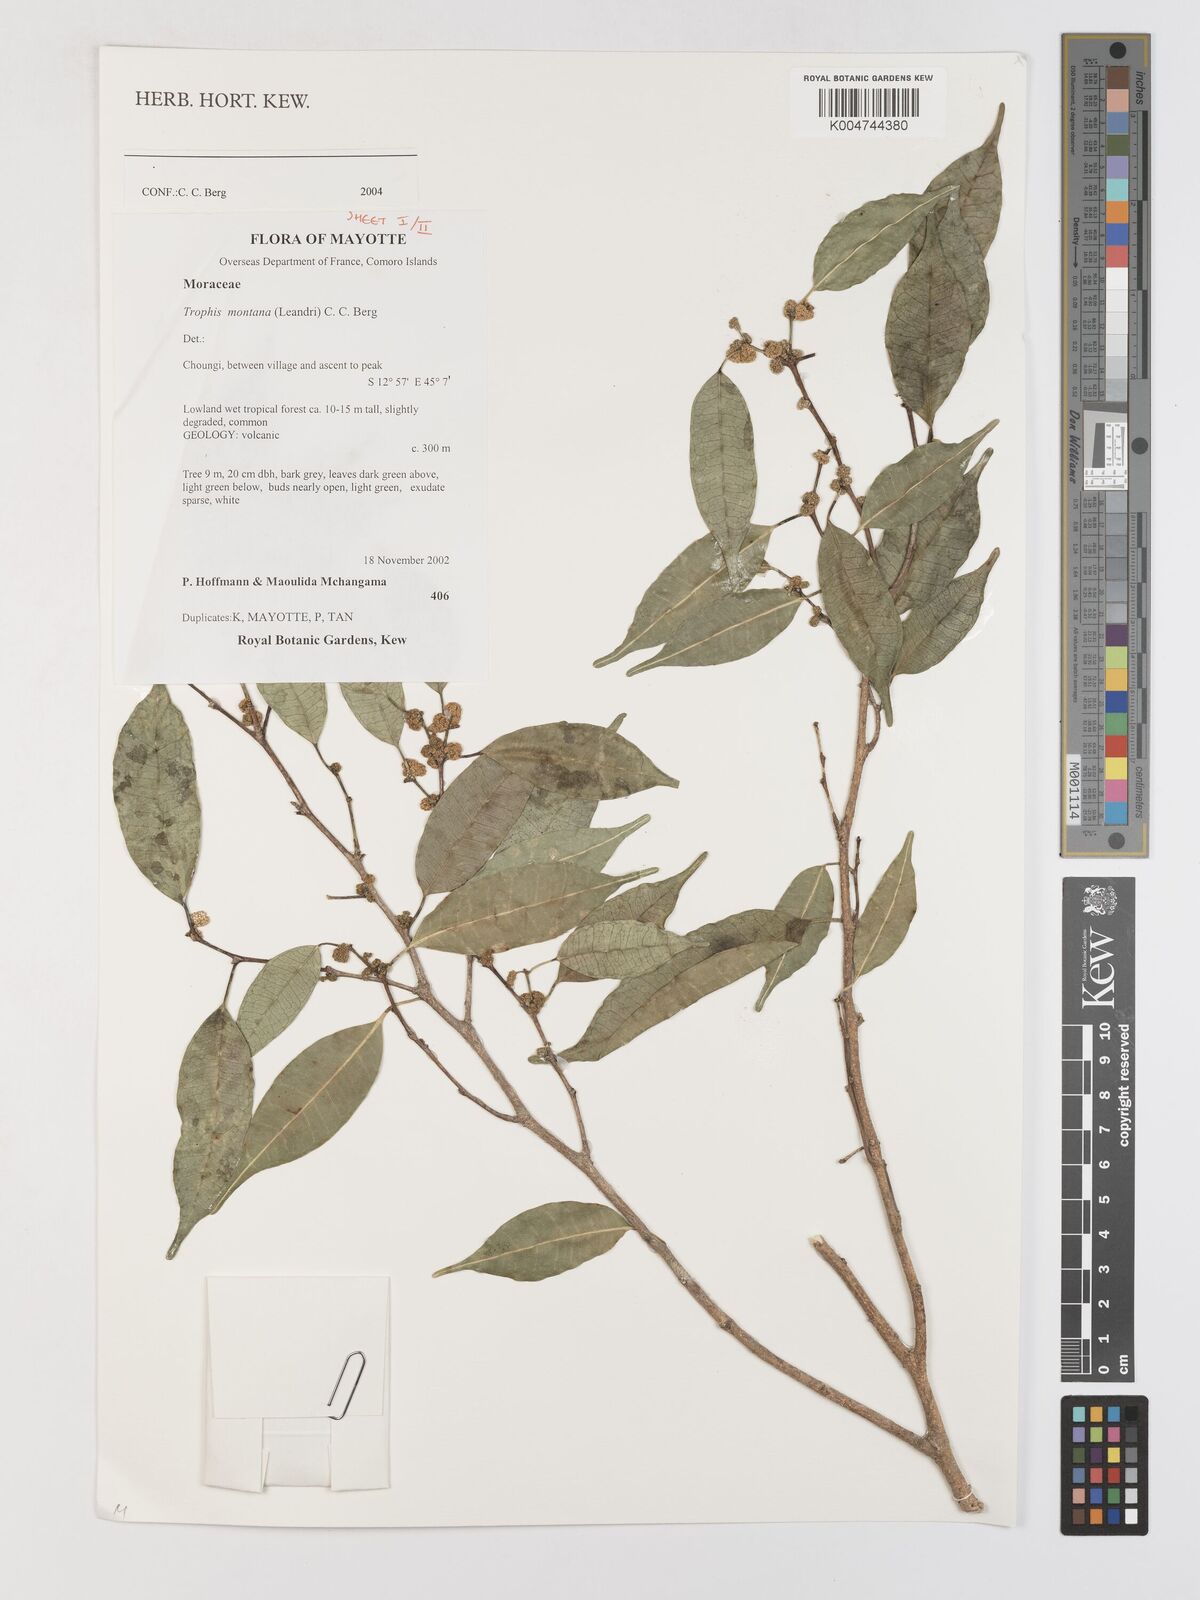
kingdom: Plantae
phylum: Tracheophyta
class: Magnoliopsida
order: Rosales
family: Moraceae
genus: Maillardia
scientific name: Maillardia montana
